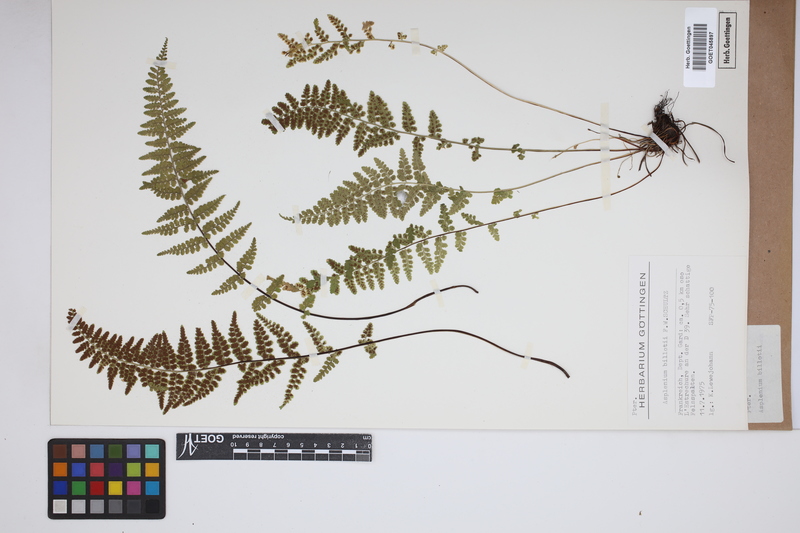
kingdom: Plantae
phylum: Tracheophyta
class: Polypodiopsida
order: Polypodiales
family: Aspleniaceae
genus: Asplenium
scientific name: Asplenium obovatum
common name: Lanceolate spleenwort
